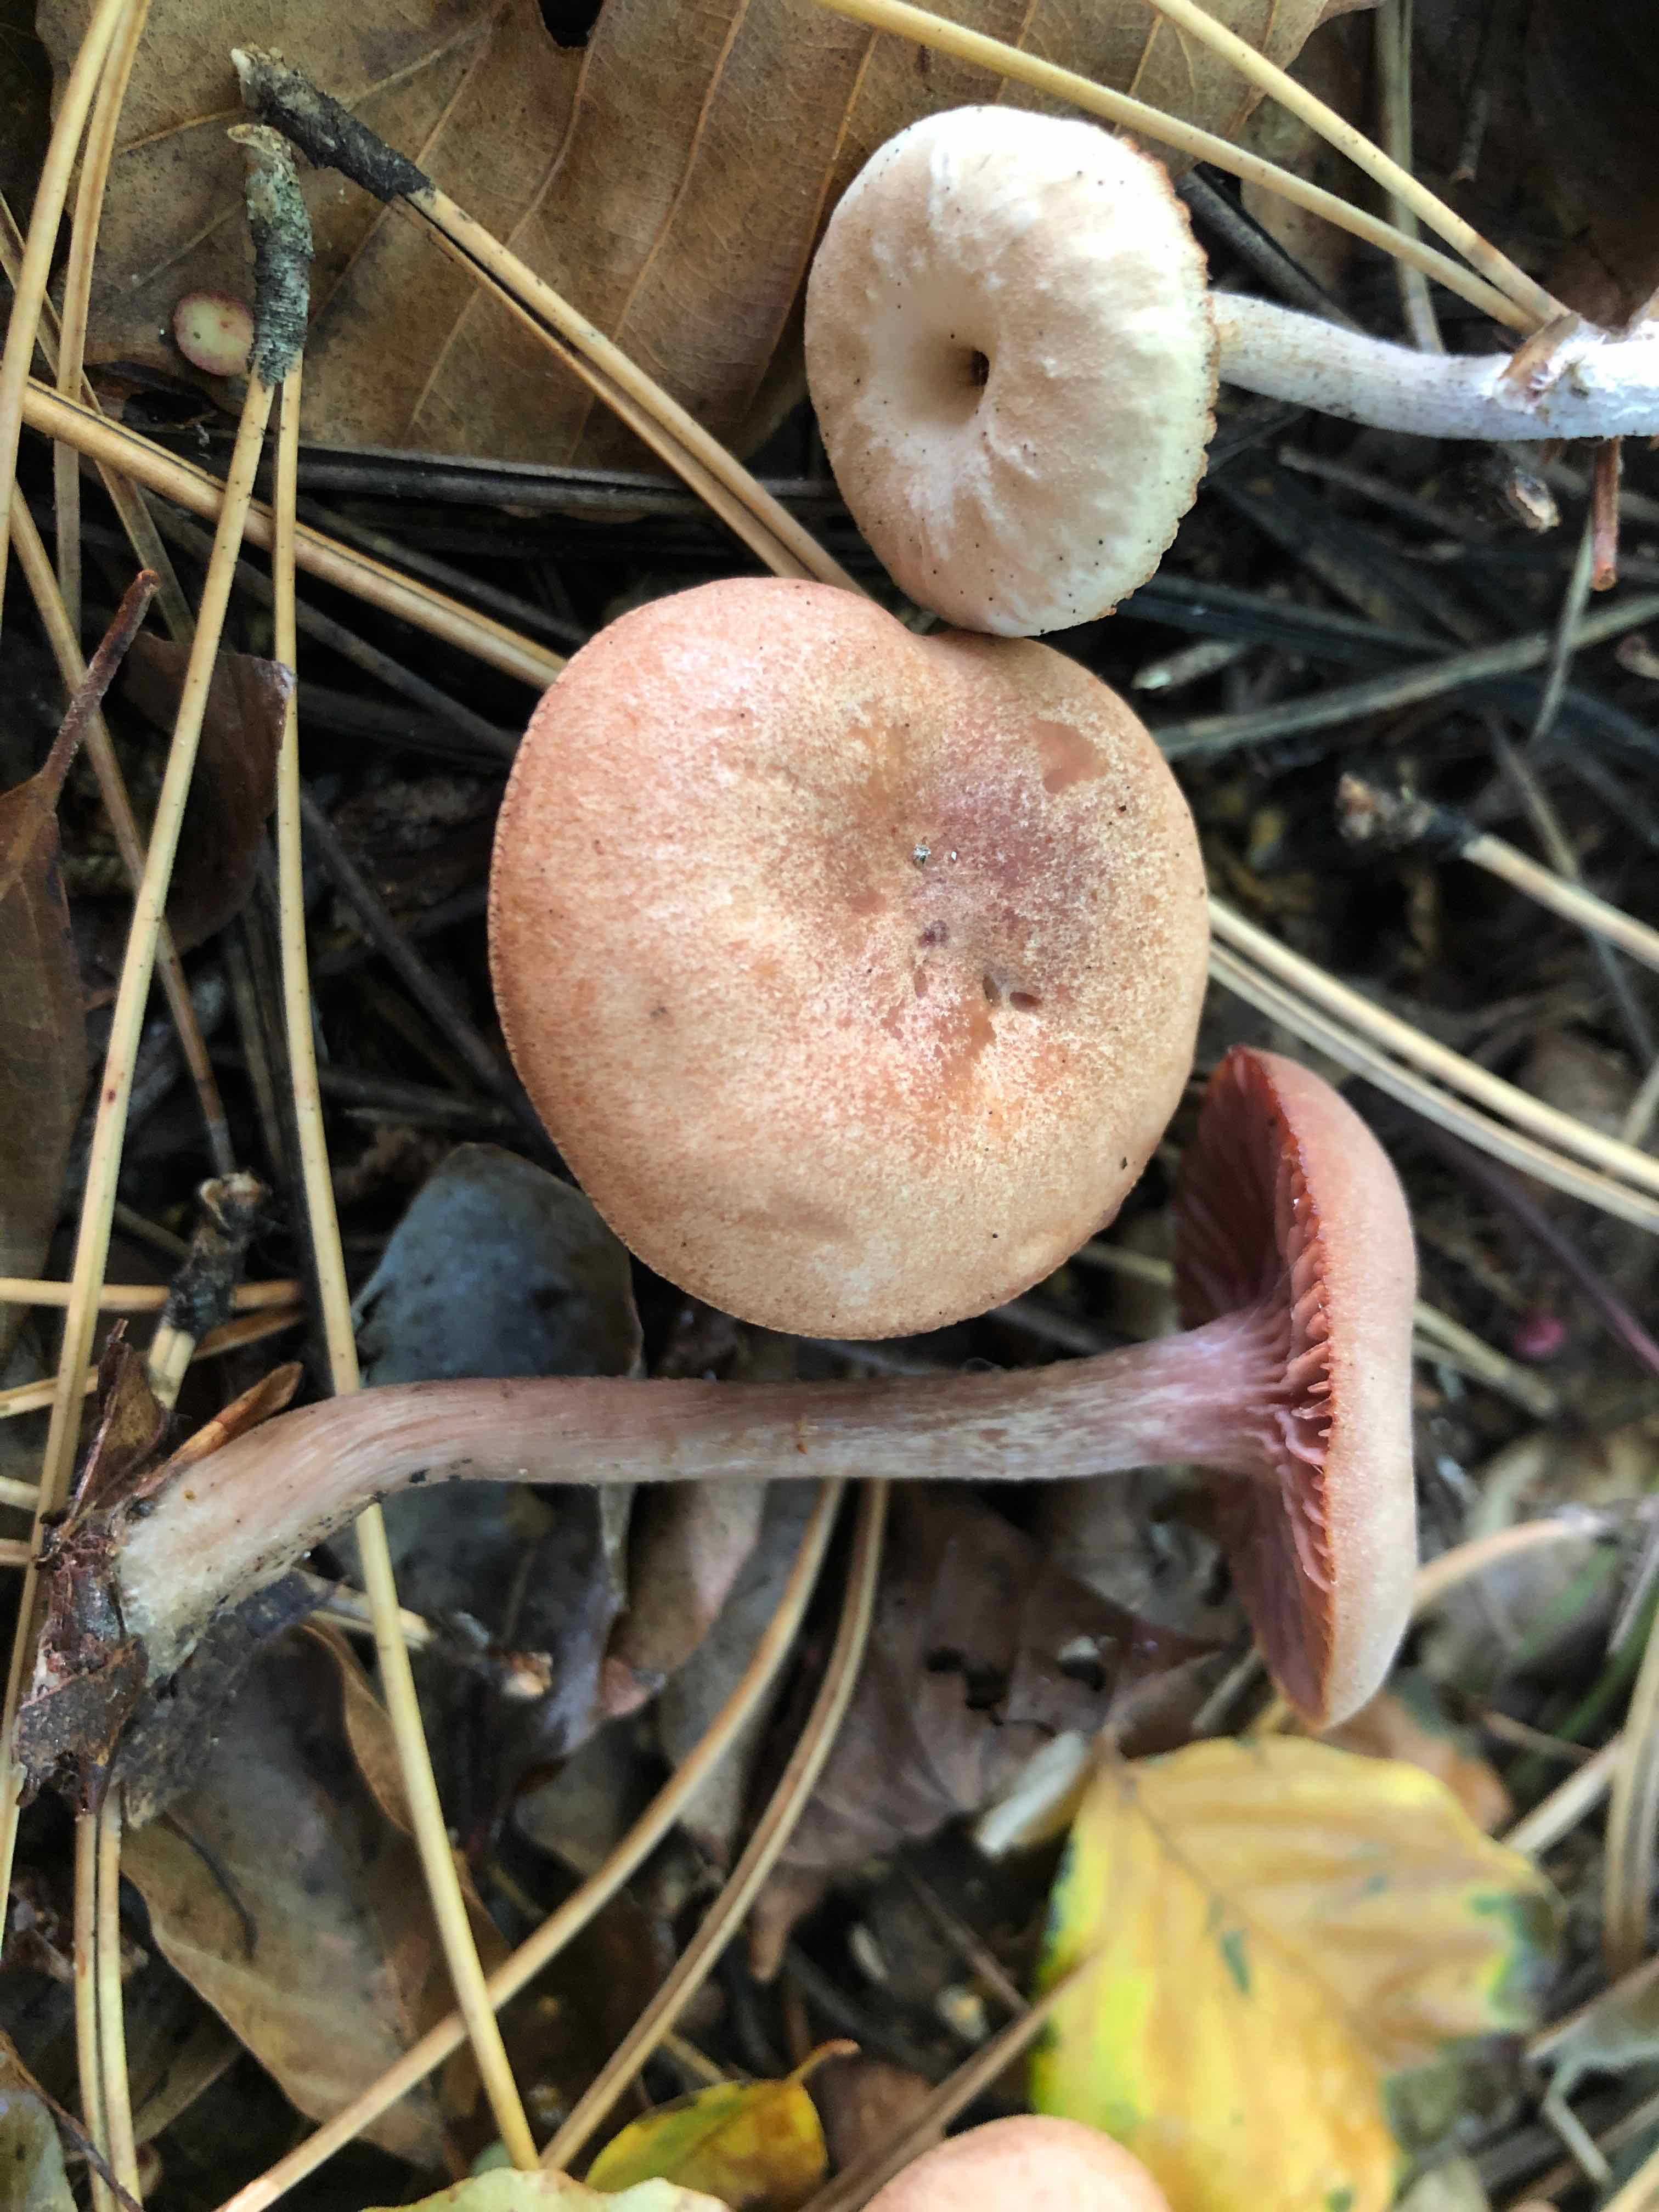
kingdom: Fungi
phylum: Basidiomycota
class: Agaricomycetes
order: Agaricales
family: Hydnangiaceae
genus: Laccaria
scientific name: Laccaria laccata
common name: rød ametysthat
